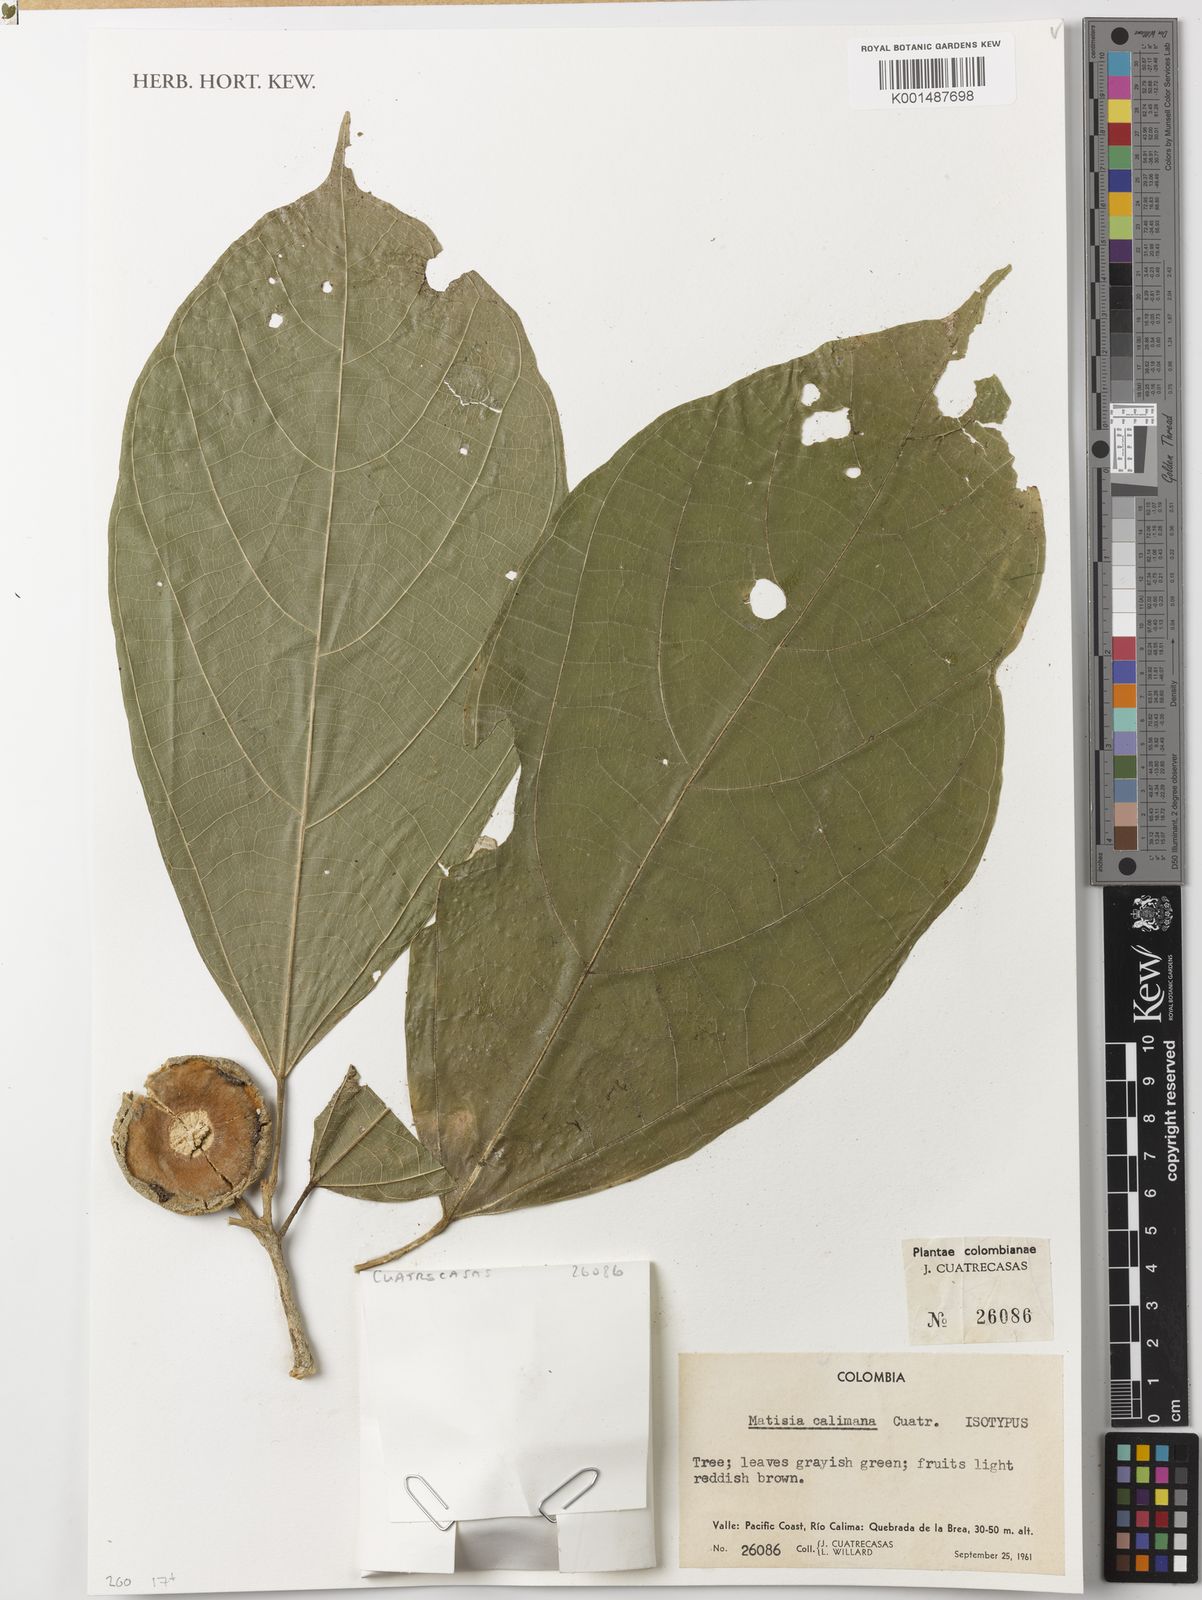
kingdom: Plantae
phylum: Tracheophyta
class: Magnoliopsida
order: Malvales
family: Malvaceae
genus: Matisia
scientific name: Matisia calimana
